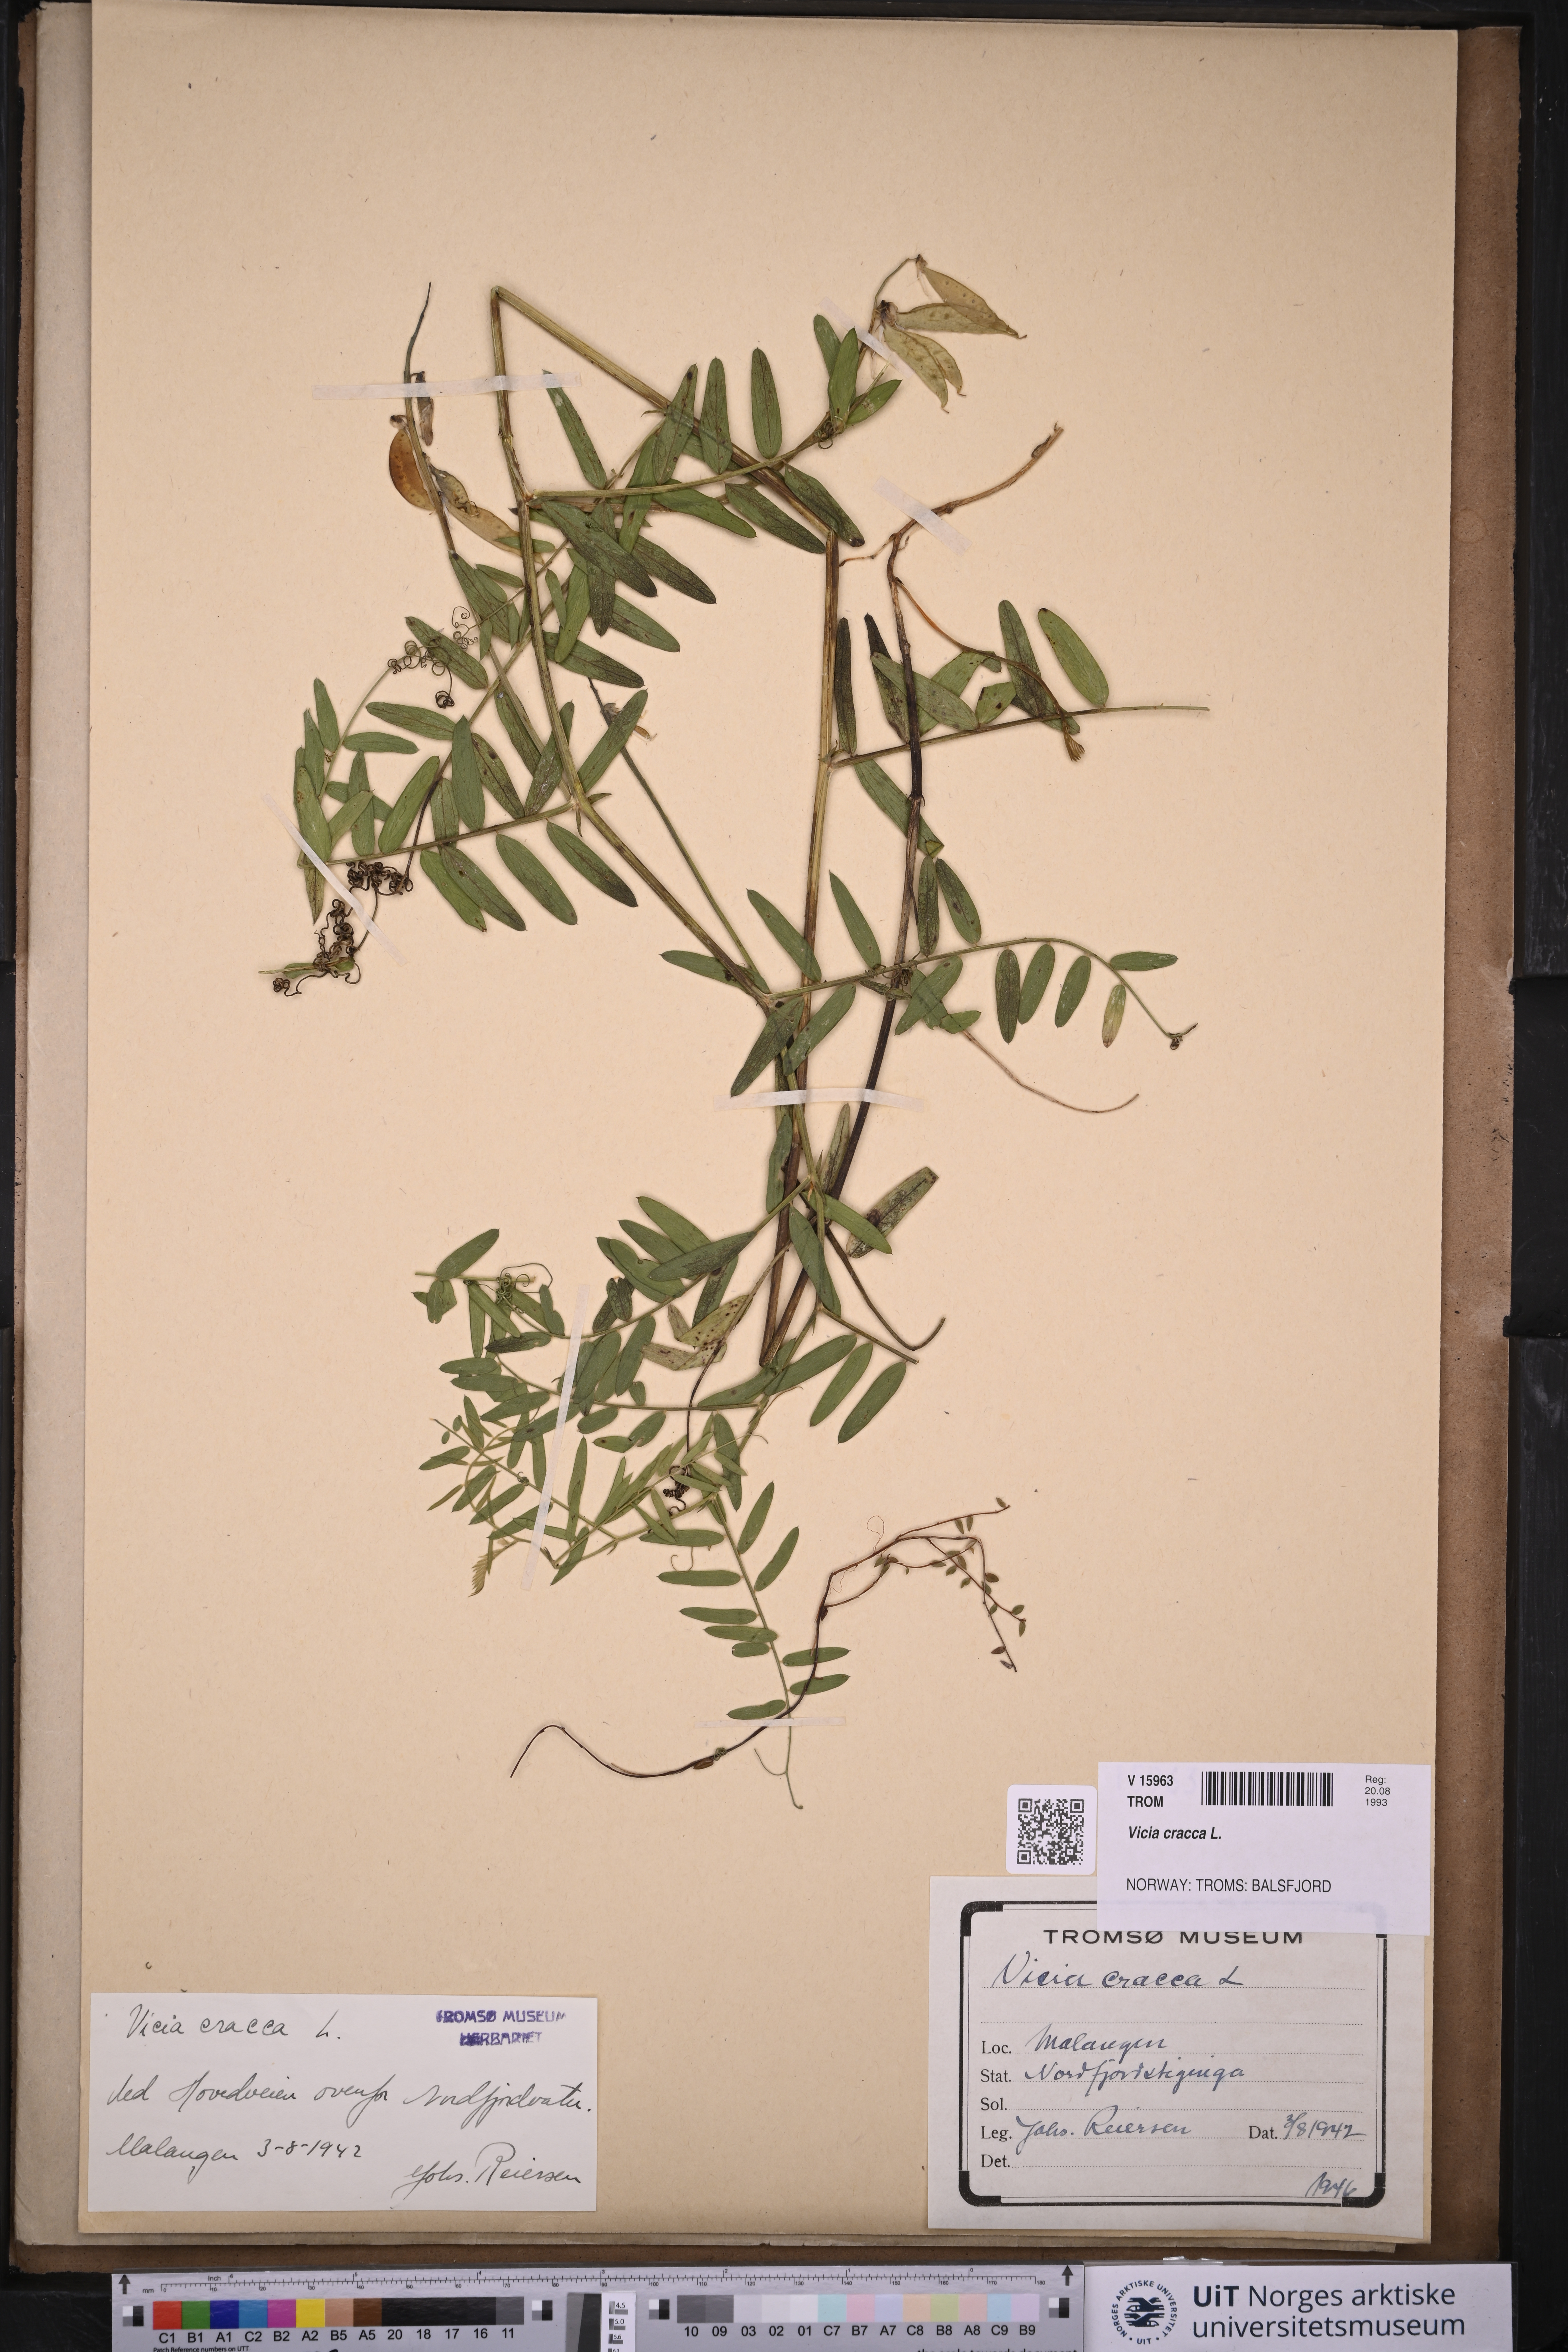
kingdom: Plantae
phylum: Tracheophyta
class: Magnoliopsida
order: Fabales
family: Fabaceae
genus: Vicia
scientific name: Vicia cracca
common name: Bird vetch
